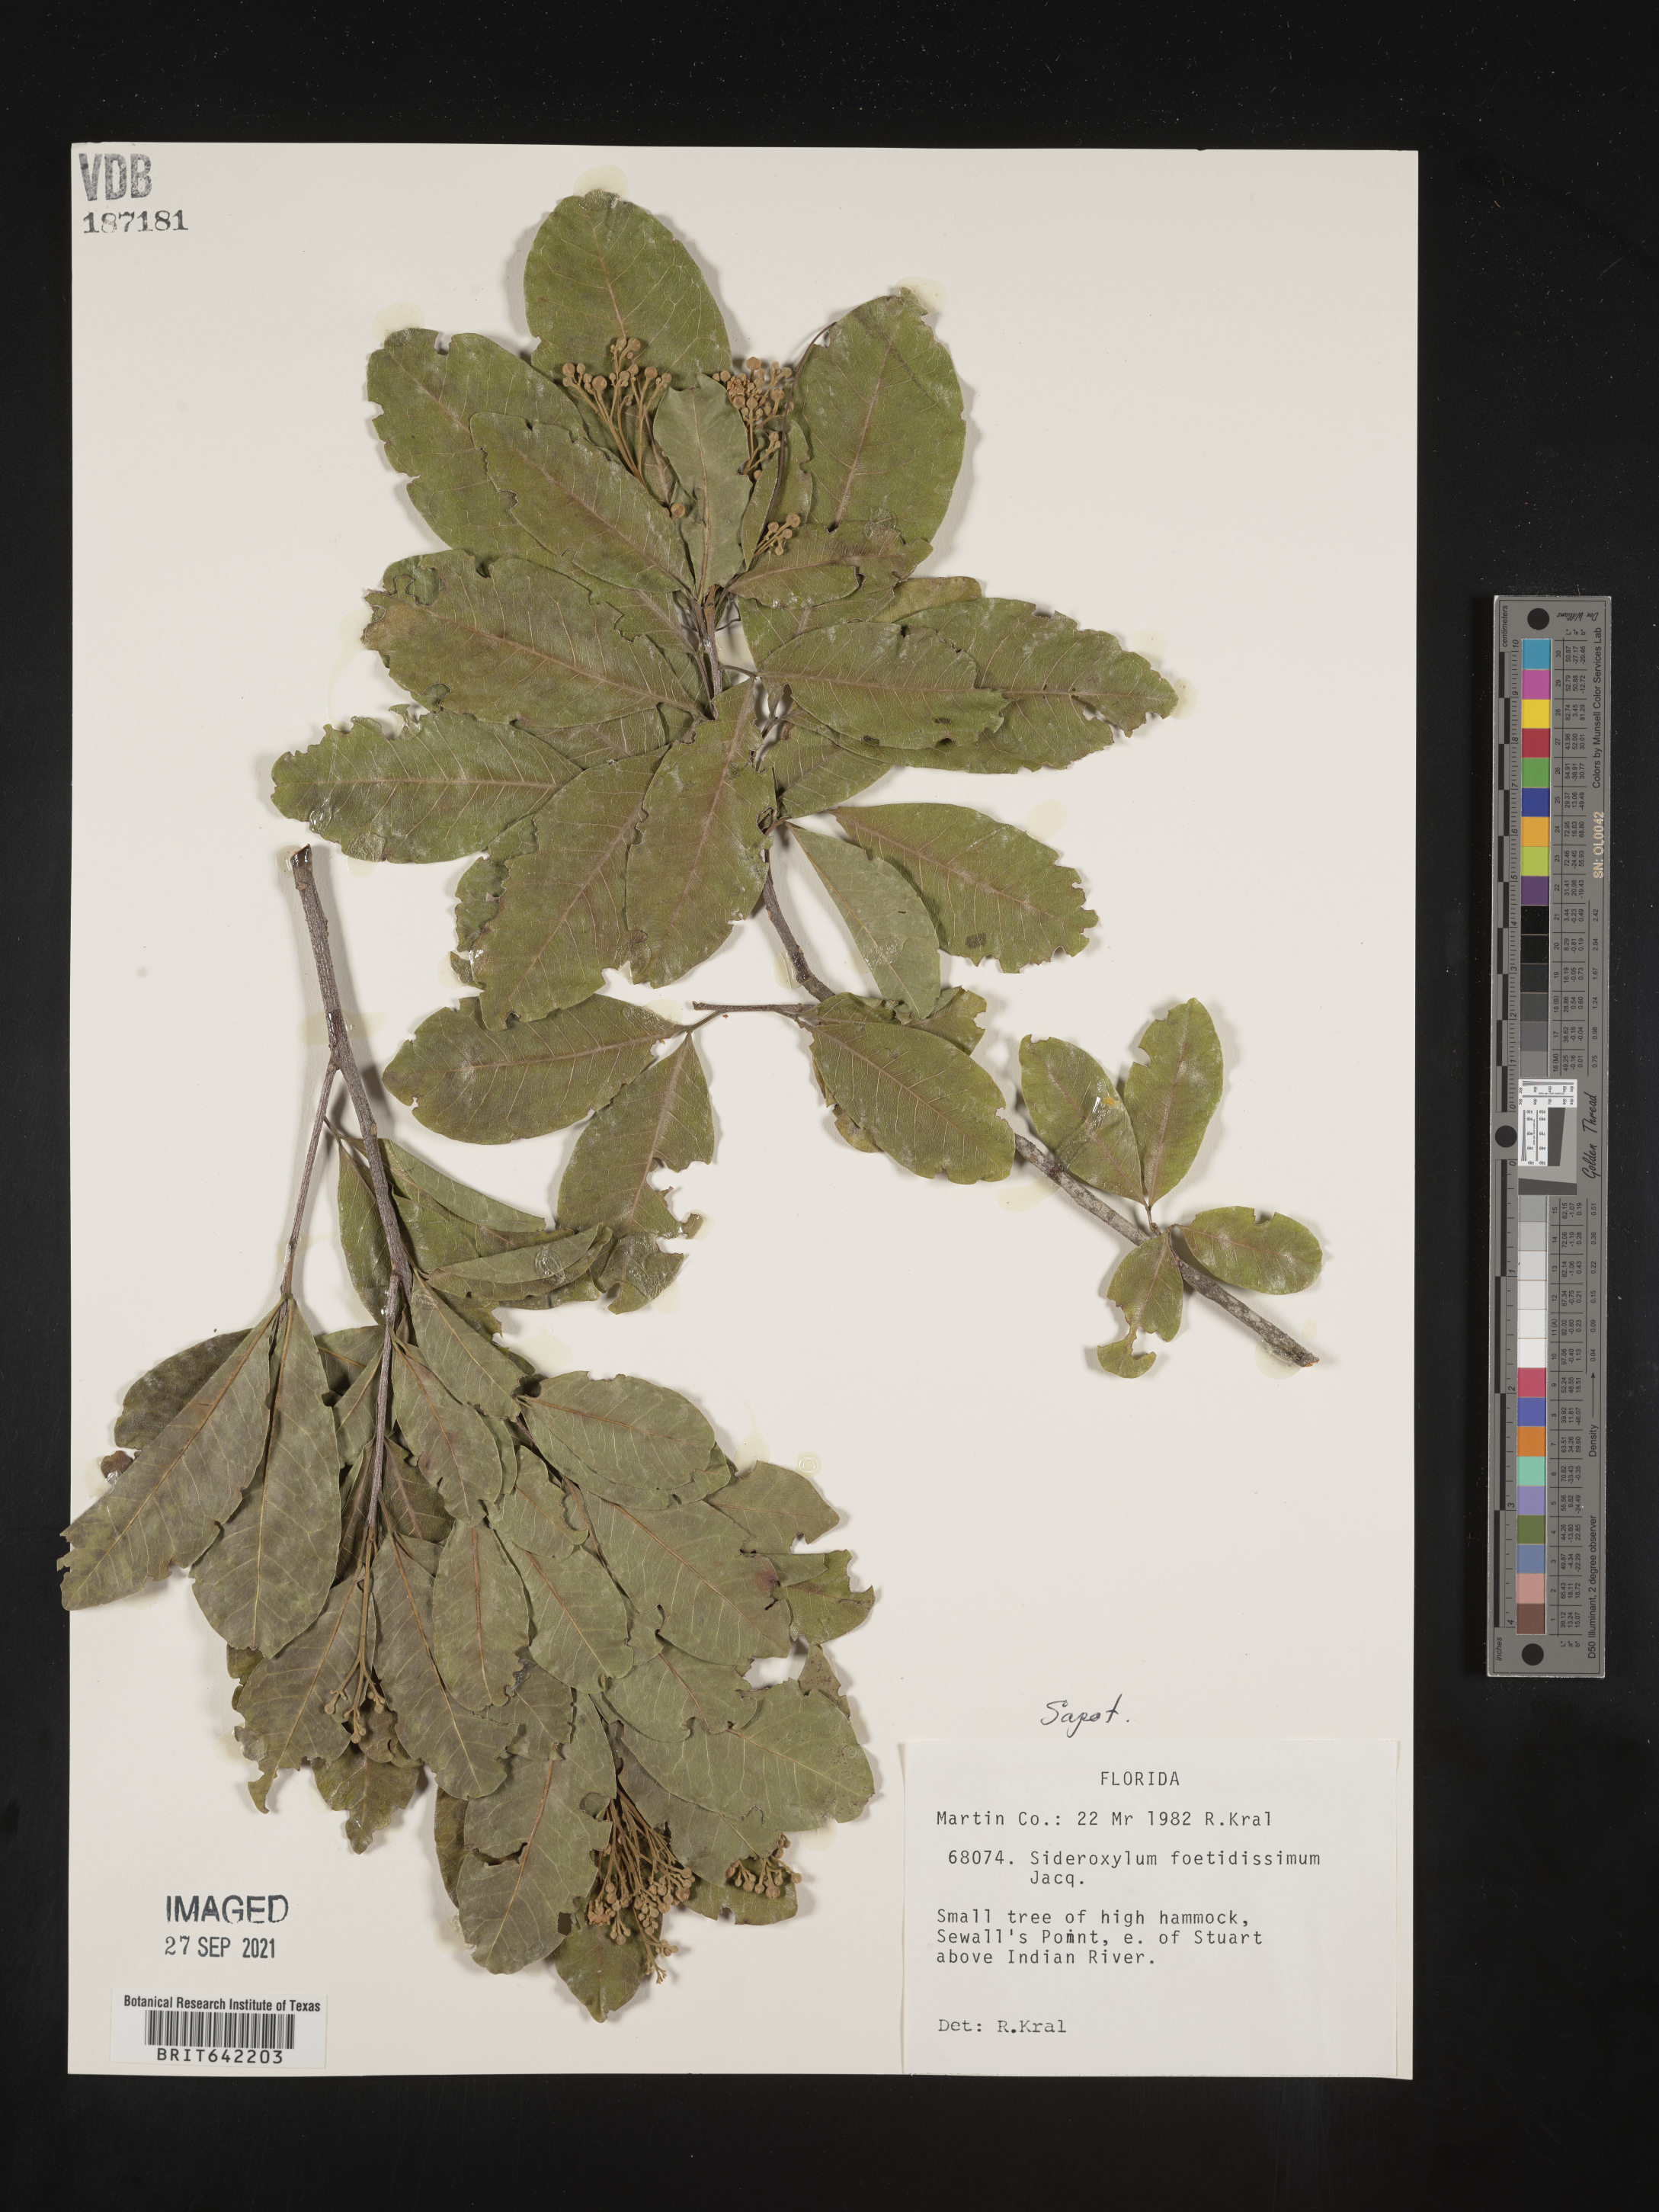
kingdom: Plantae
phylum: Tracheophyta
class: Magnoliopsida
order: Ericales
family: Sapotaceae
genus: Sideroxylon
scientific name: Sideroxylon foetidissimum
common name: Barbados-mastic
